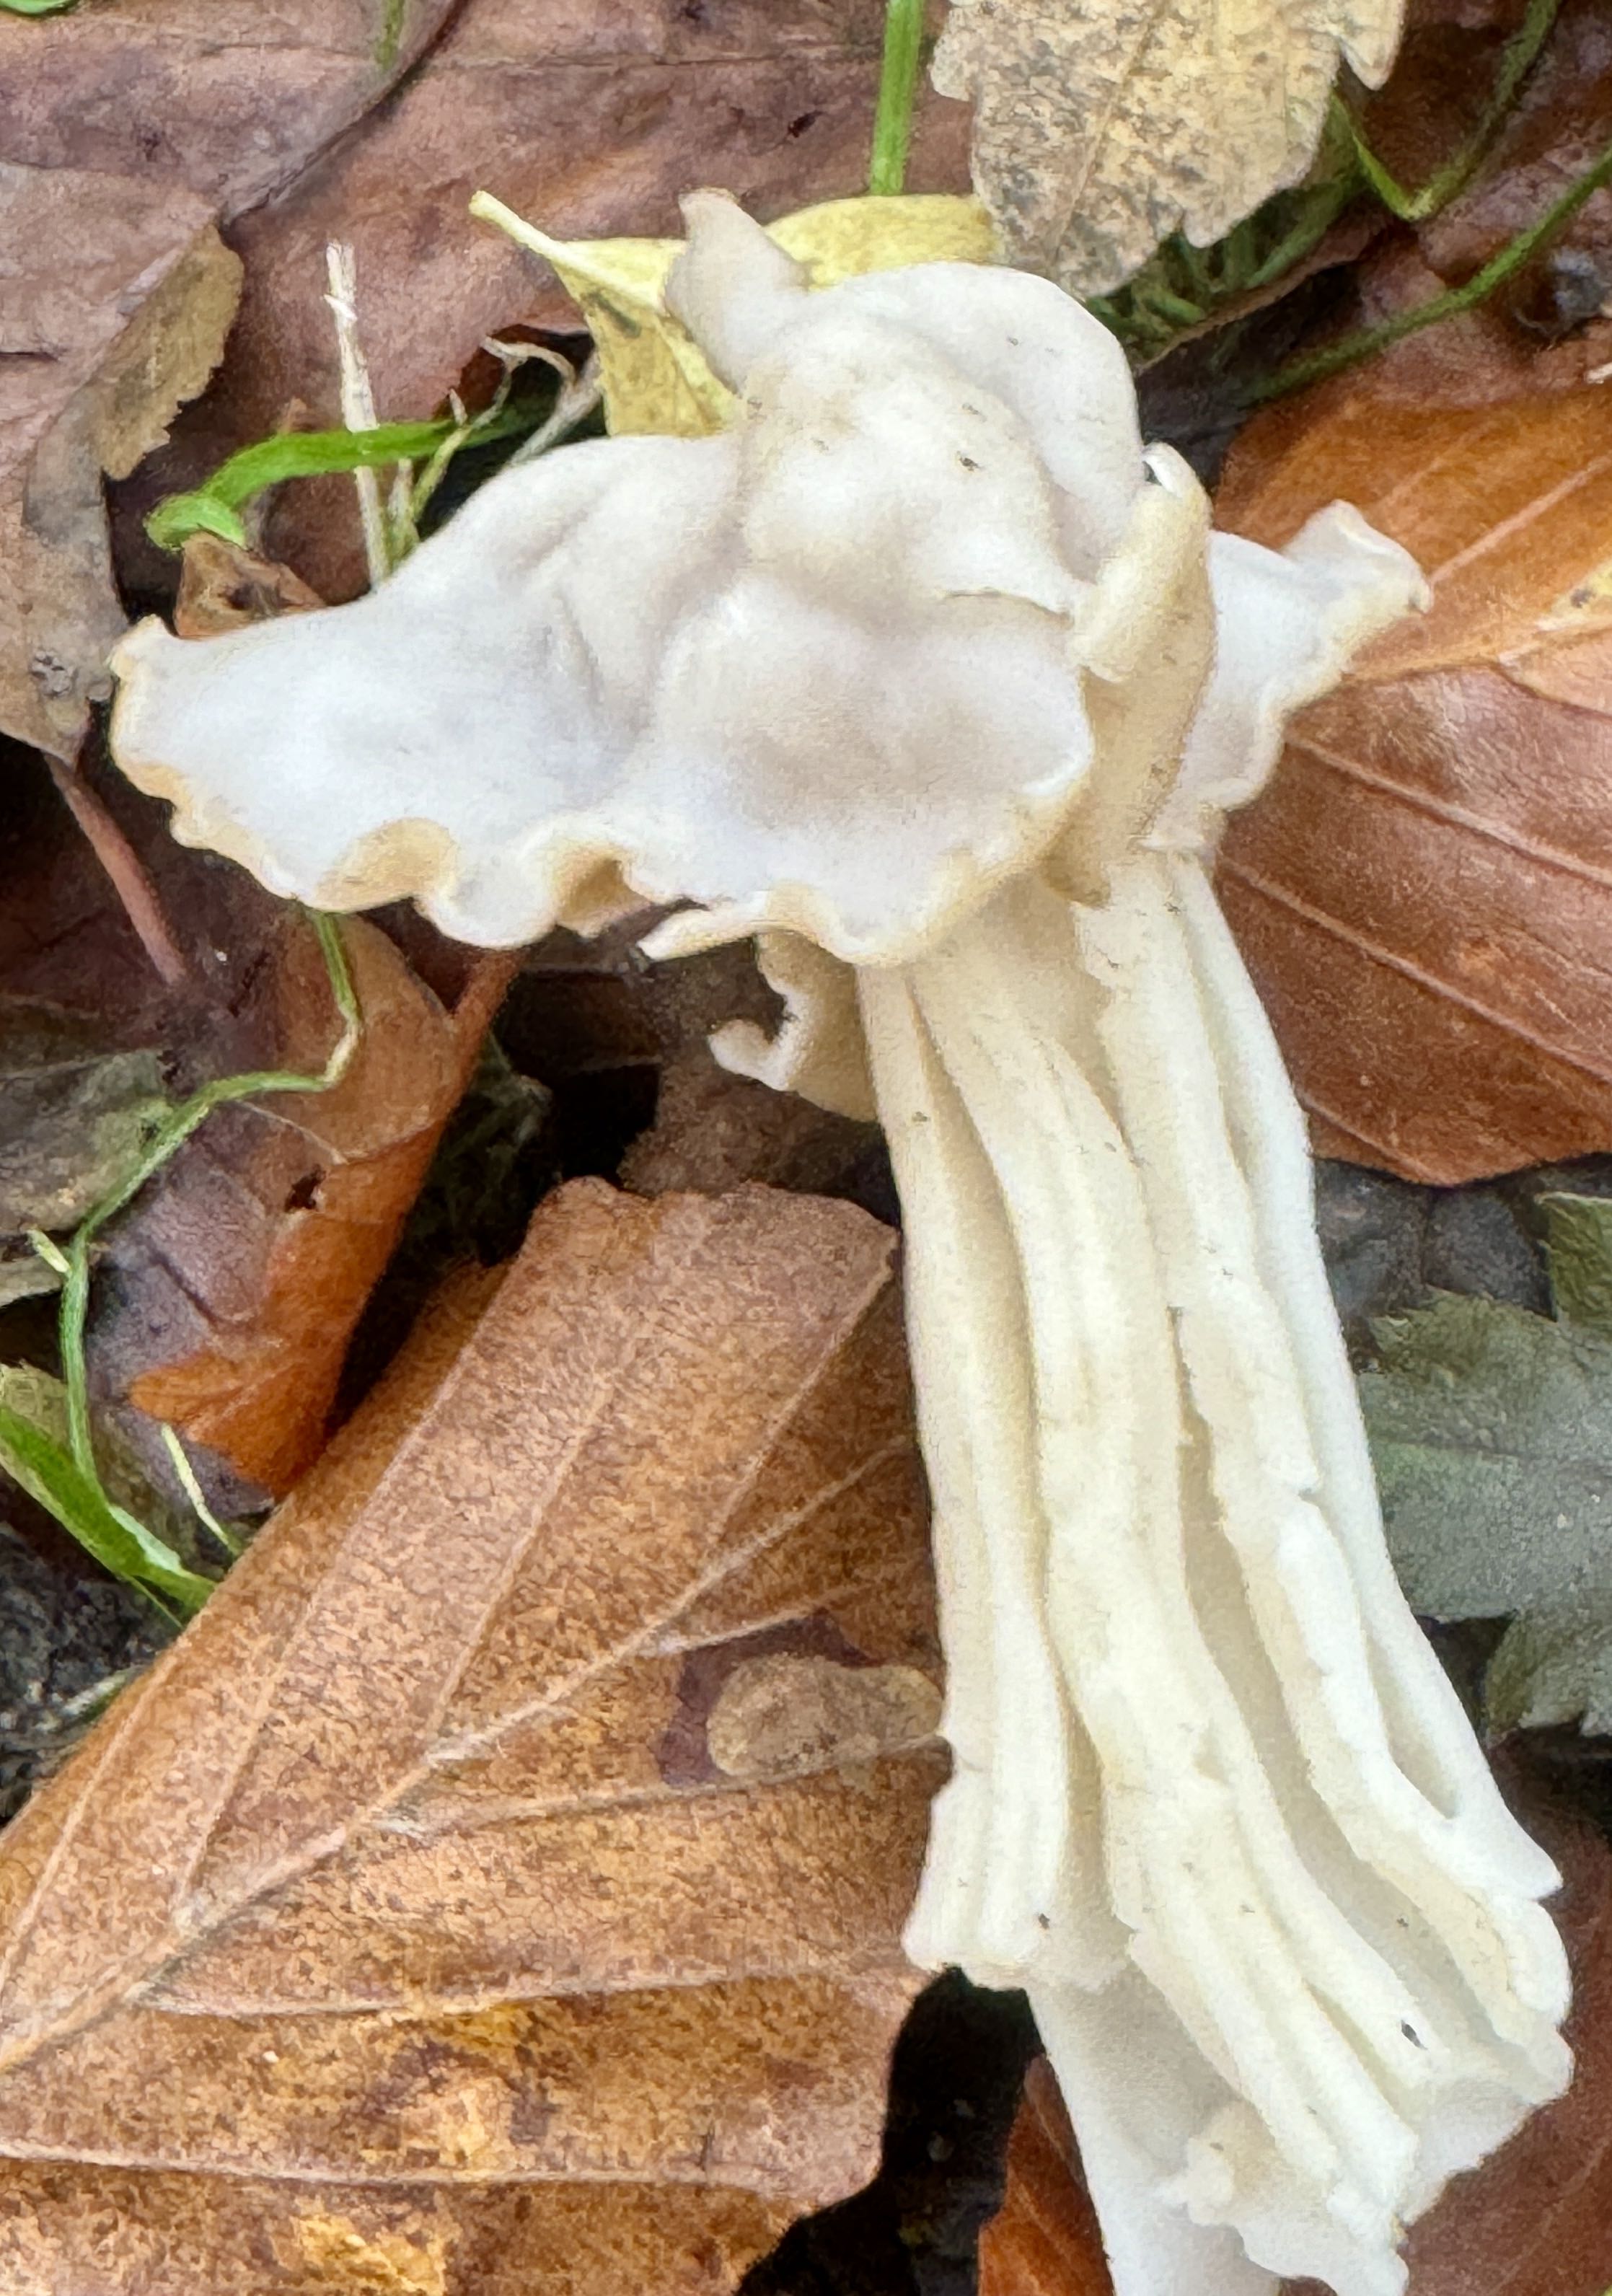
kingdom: Fungi
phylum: Ascomycota
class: Pezizomycetes
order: Pezizales
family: Helvellaceae
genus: Helvella
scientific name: Helvella crispa
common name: kruset foldhat
